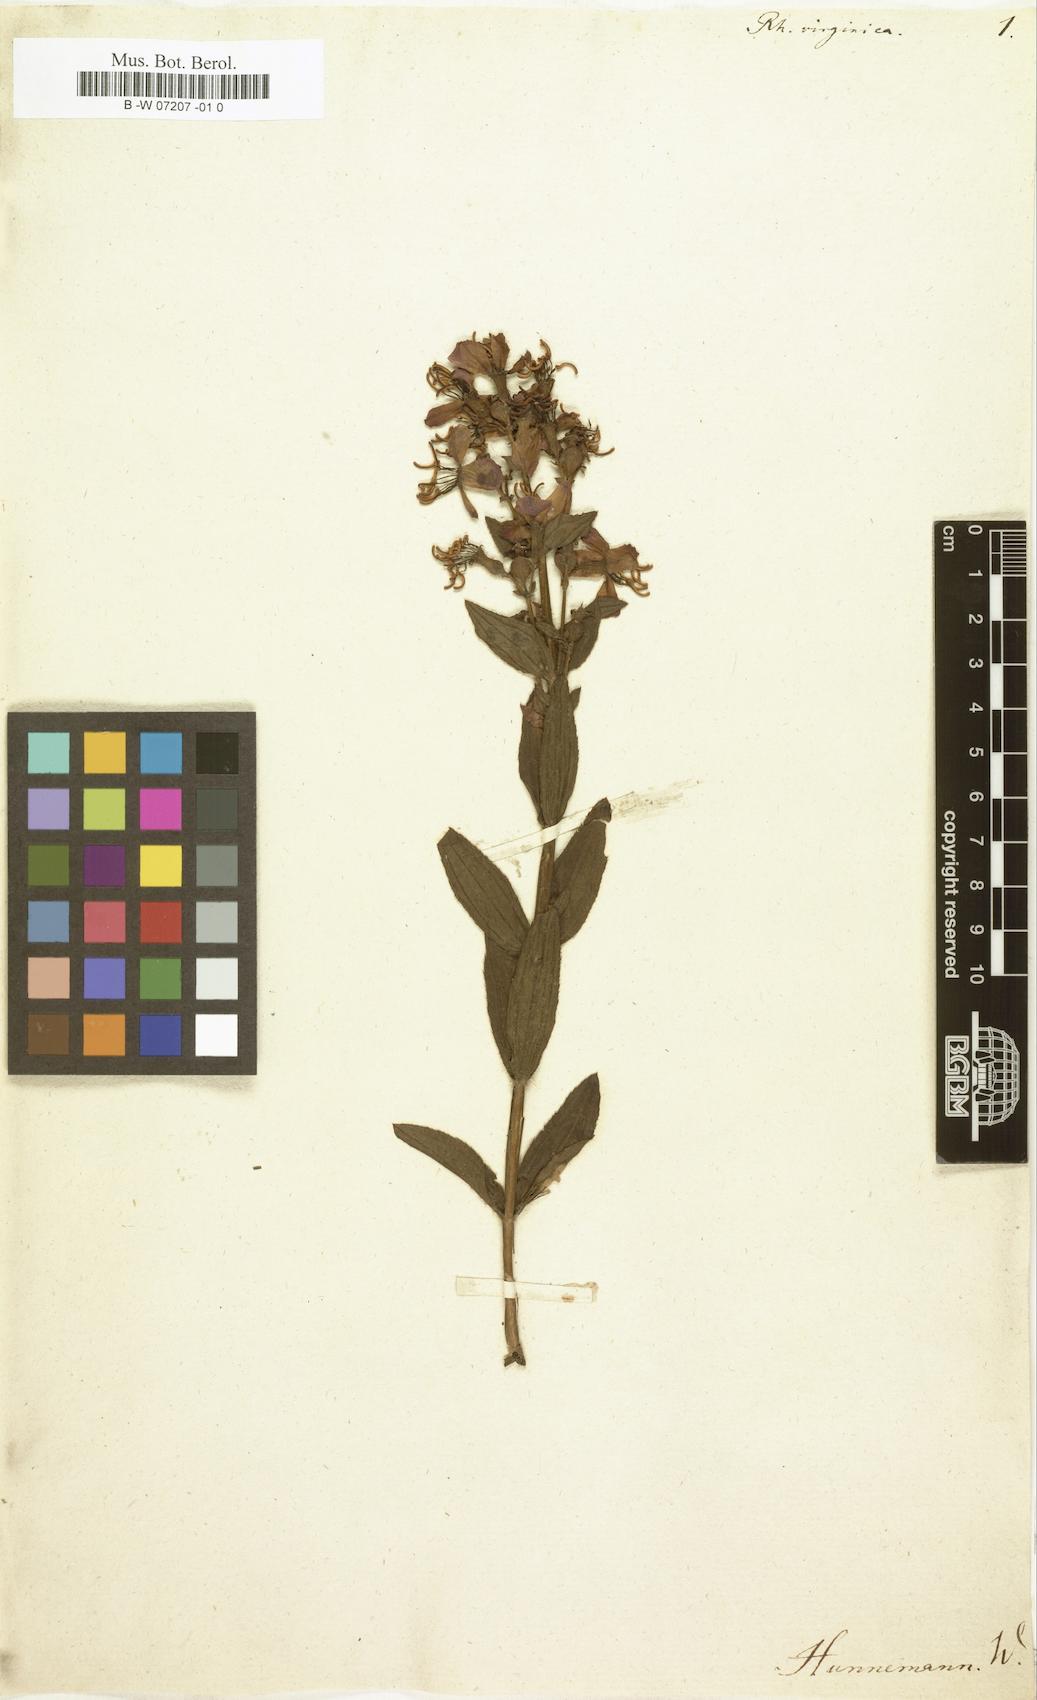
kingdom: Plantae
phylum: Tracheophyta
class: Magnoliopsida
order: Myrtales
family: Melastomataceae
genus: Rhexia
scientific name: Rhexia virginica
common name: Common meadow beauty
